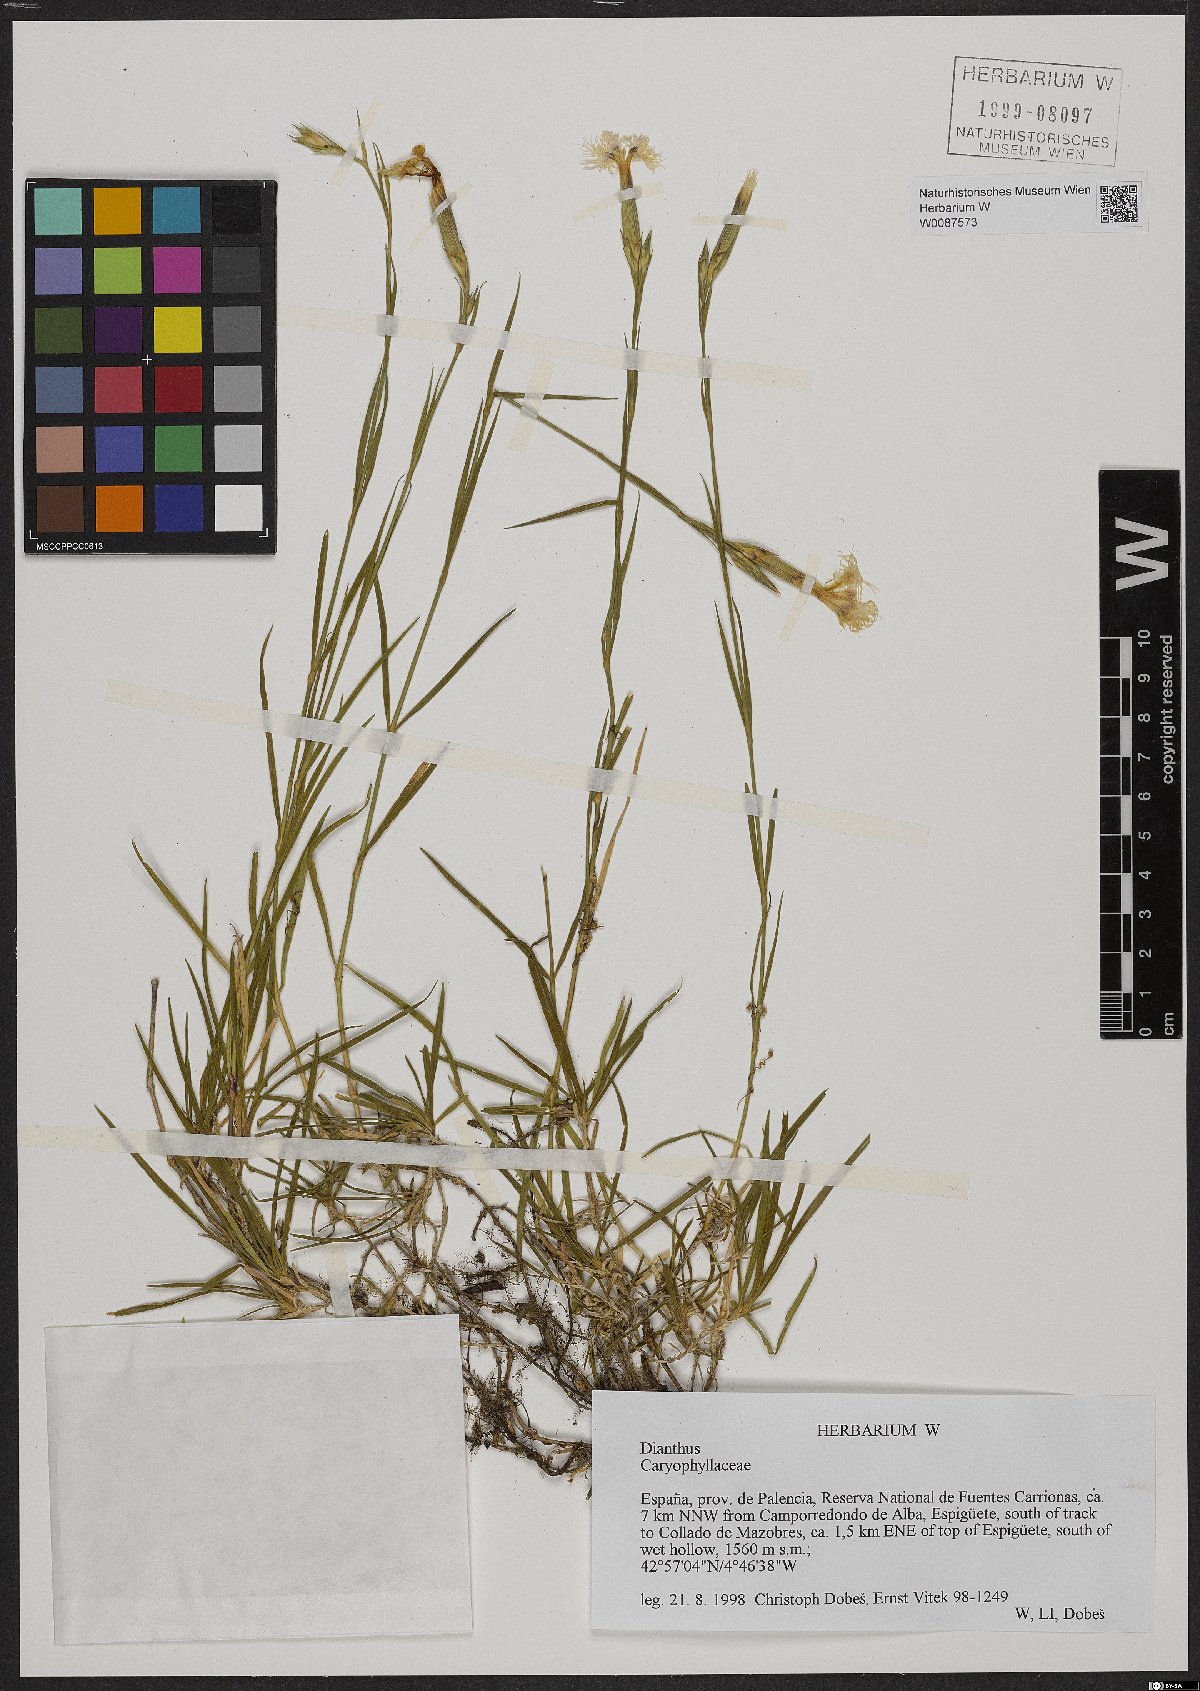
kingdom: Plantae
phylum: Tracheophyta
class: Magnoliopsida
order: Caryophyllales
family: Caryophyllaceae
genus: Dianthus
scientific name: Dianthus
